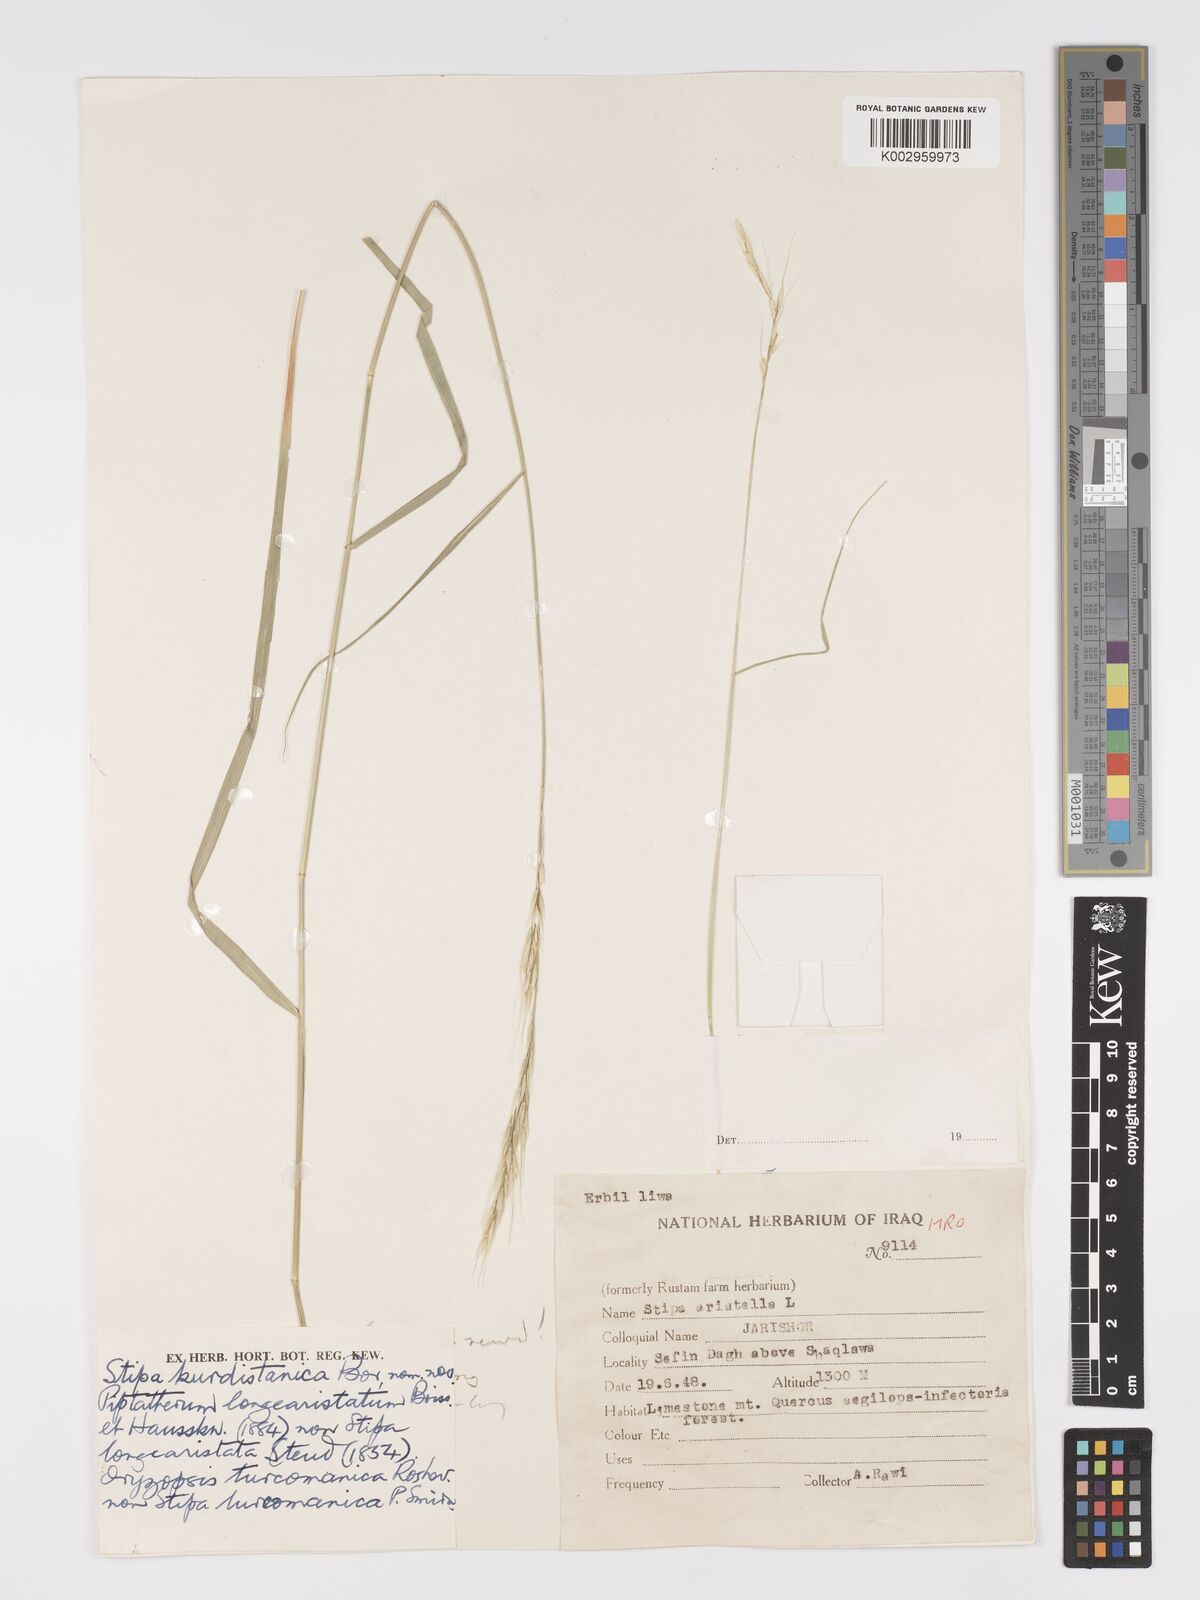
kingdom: Plantae
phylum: Tracheophyta
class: Liliopsida
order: Poales
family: Poaceae
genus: Achnatherum
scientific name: Achnatherum turcomanicum
